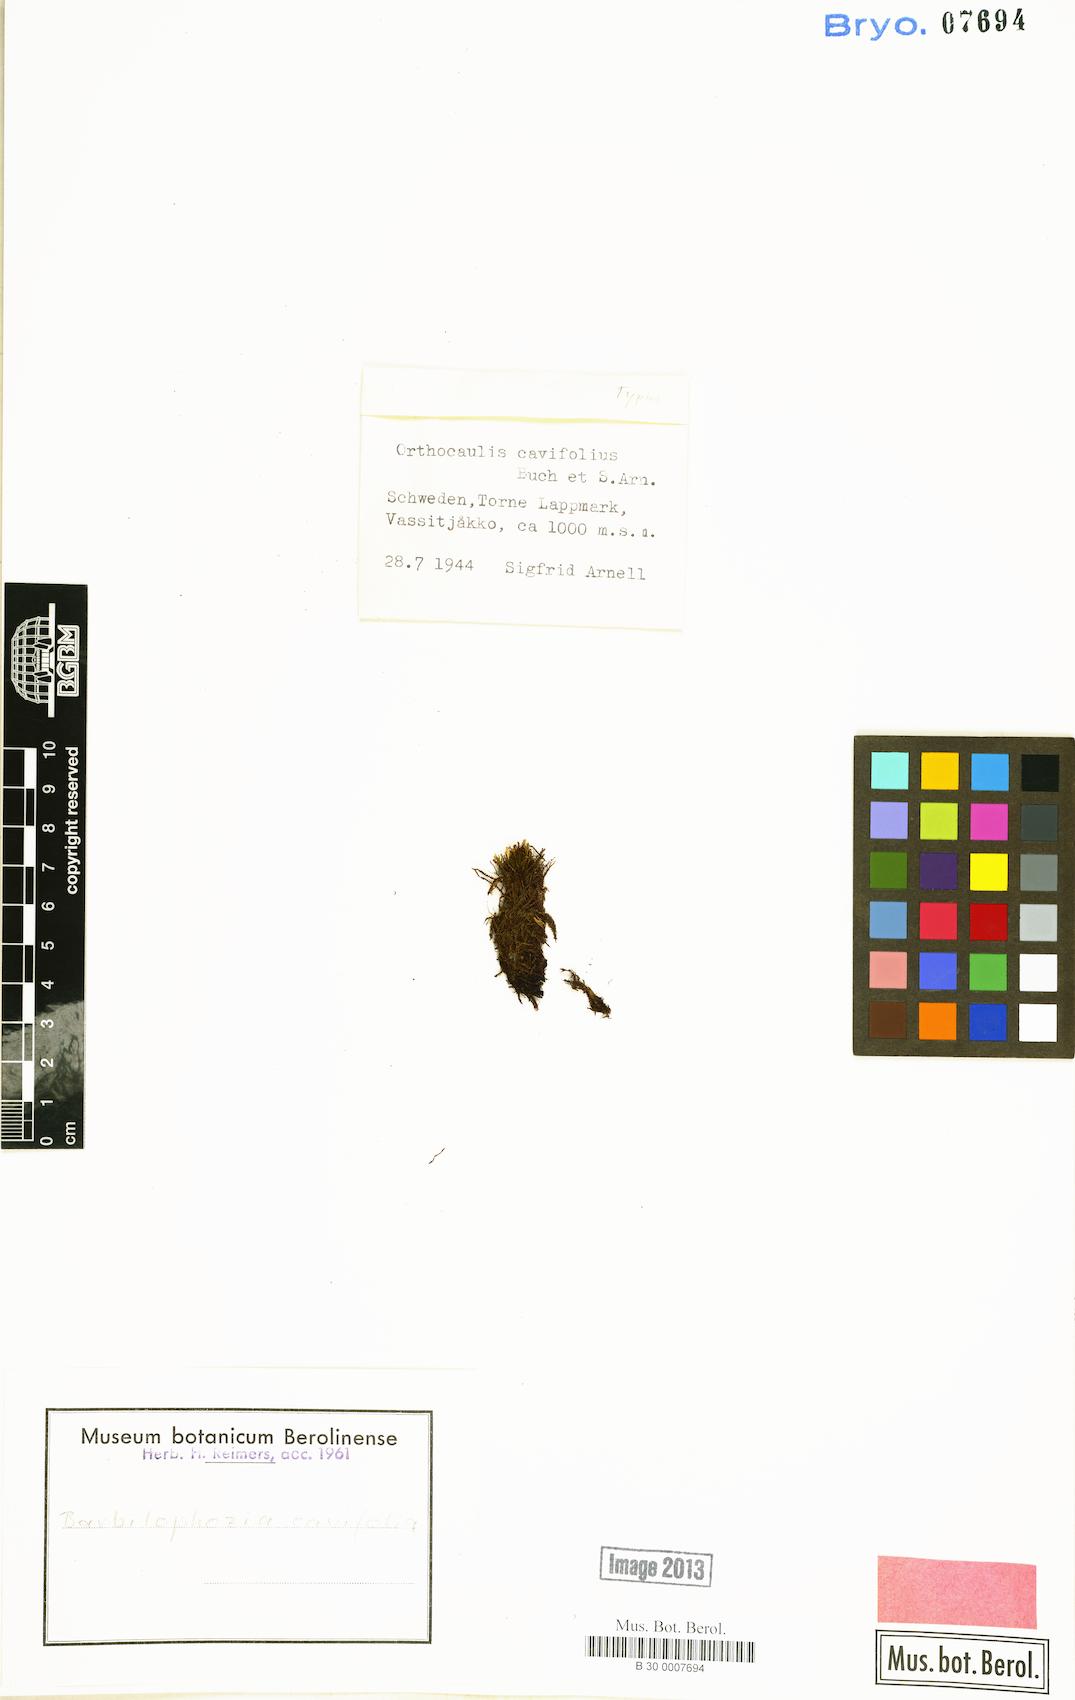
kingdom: Plantae
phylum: Marchantiophyta
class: Jungermanniopsida
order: Jungermanniales
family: Anastrophyllaceae
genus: Orthocaulis
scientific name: Orthocaulis cavifolius
